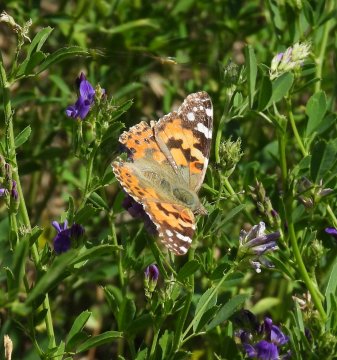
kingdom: Animalia
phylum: Arthropoda
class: Insecta
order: Lepidoptera
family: Nymphalidae
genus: Vanessa
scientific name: Vanessa cardui
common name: Painted Lady
